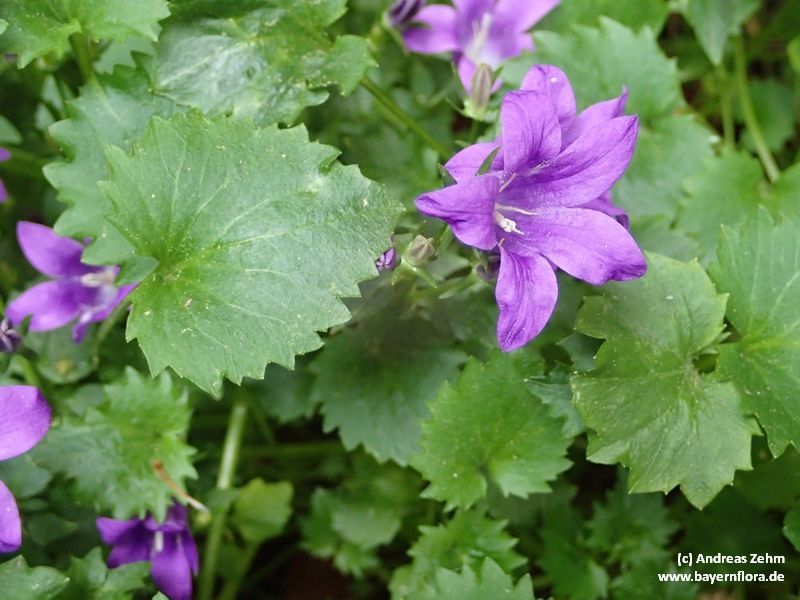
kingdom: Plantae
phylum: Tracheophyta
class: Magnoliopsida
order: Asterales
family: Campanulaceae
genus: Campanula
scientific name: Campanula portenschlagiana
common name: Adria bellflower
